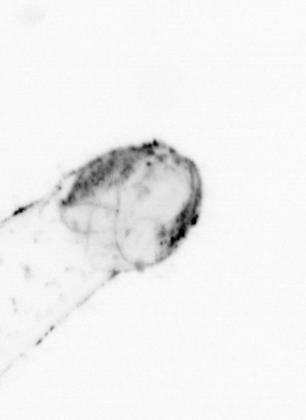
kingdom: Animalia
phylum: Chaetognatha
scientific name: Chaetognatha
